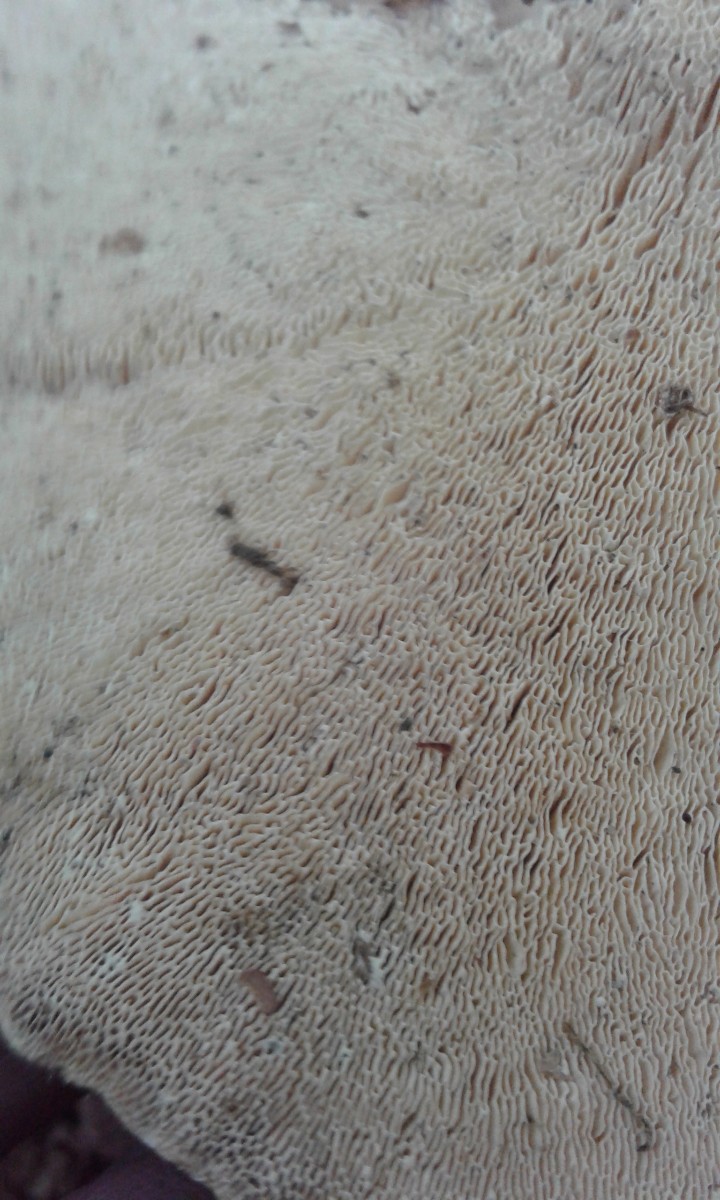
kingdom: Fungi
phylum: Basidiomycota
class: Agaricomycetes
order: Polyporales
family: Polyporaceae
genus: Trametes
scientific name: Trametes gibbosa
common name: puklet læderporesvamp
